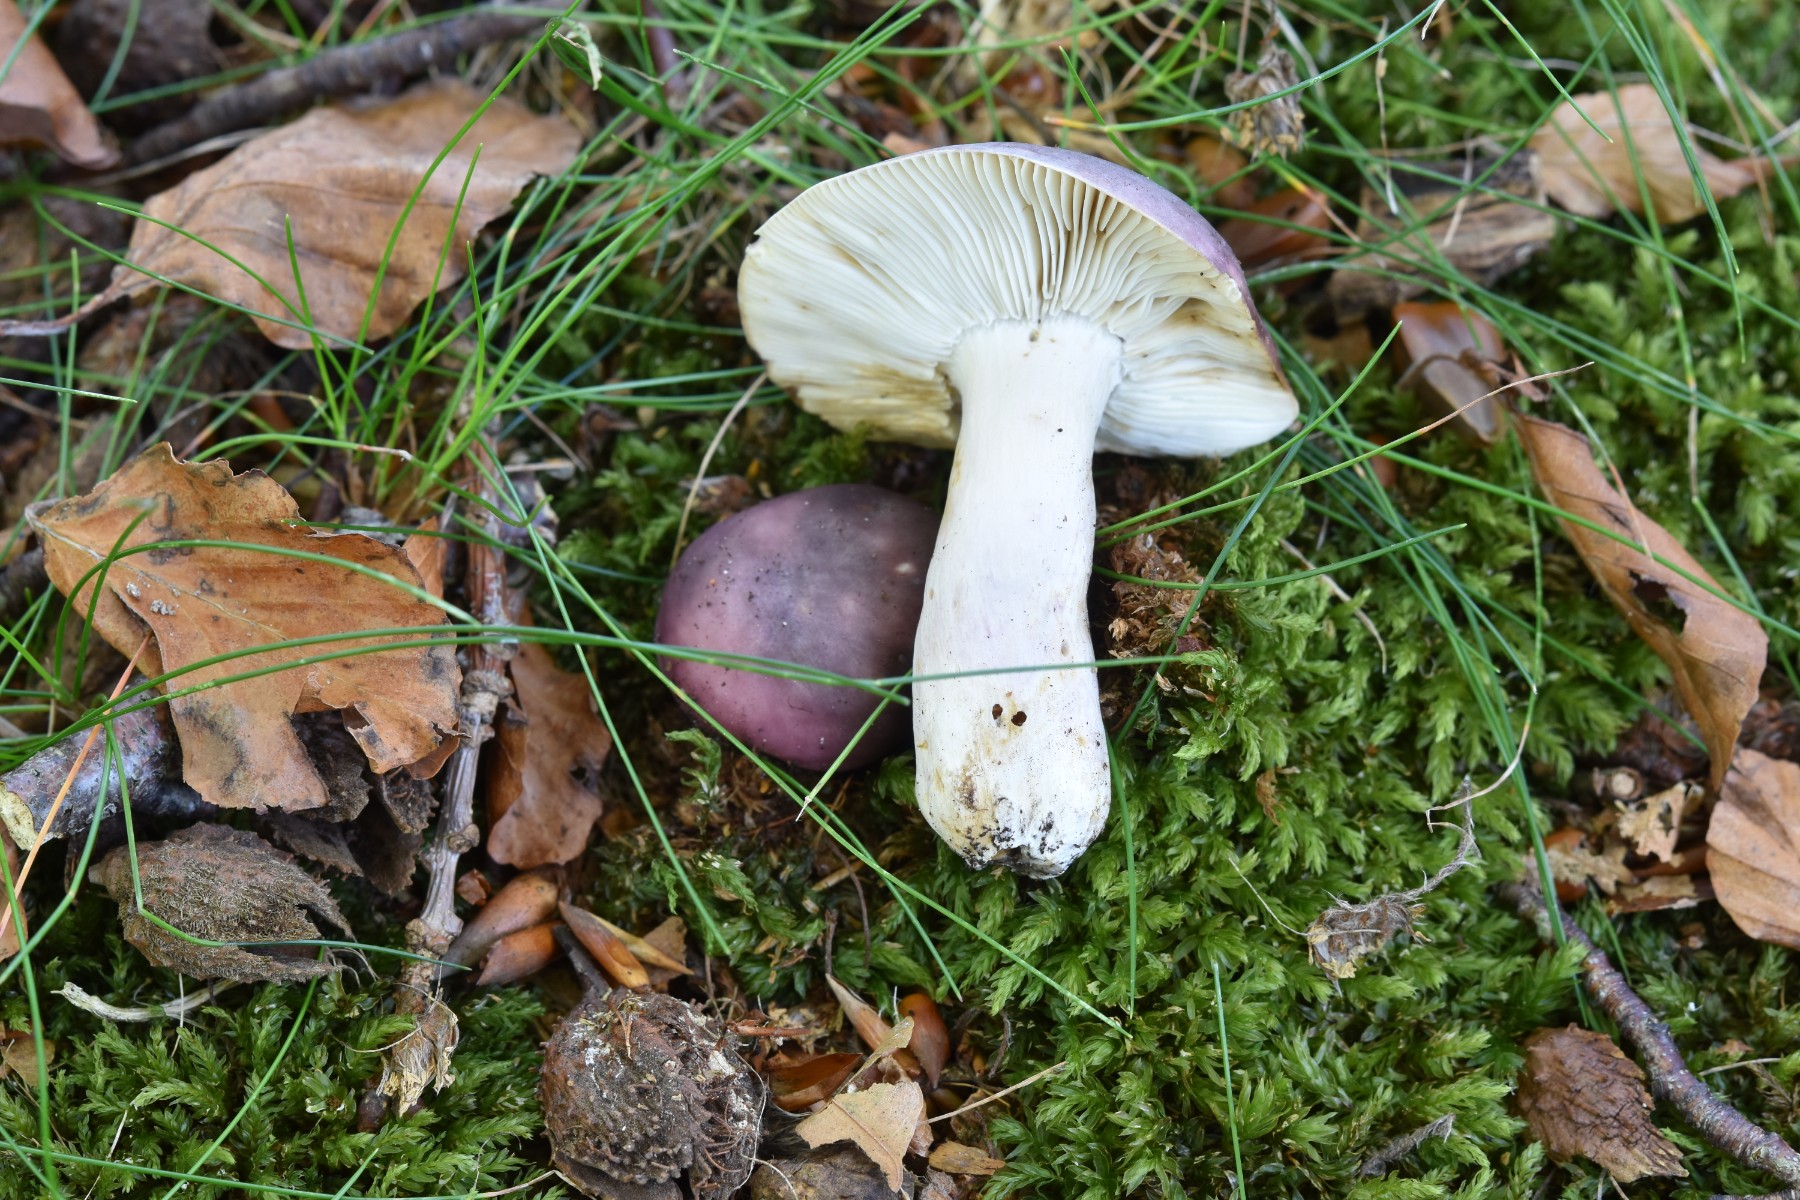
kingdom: Fungi
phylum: Basidiomycota
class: Agaricomycetes
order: Russulales
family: Russulaceae
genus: Russula
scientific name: Russula cyanoxantha
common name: broget skørhat
